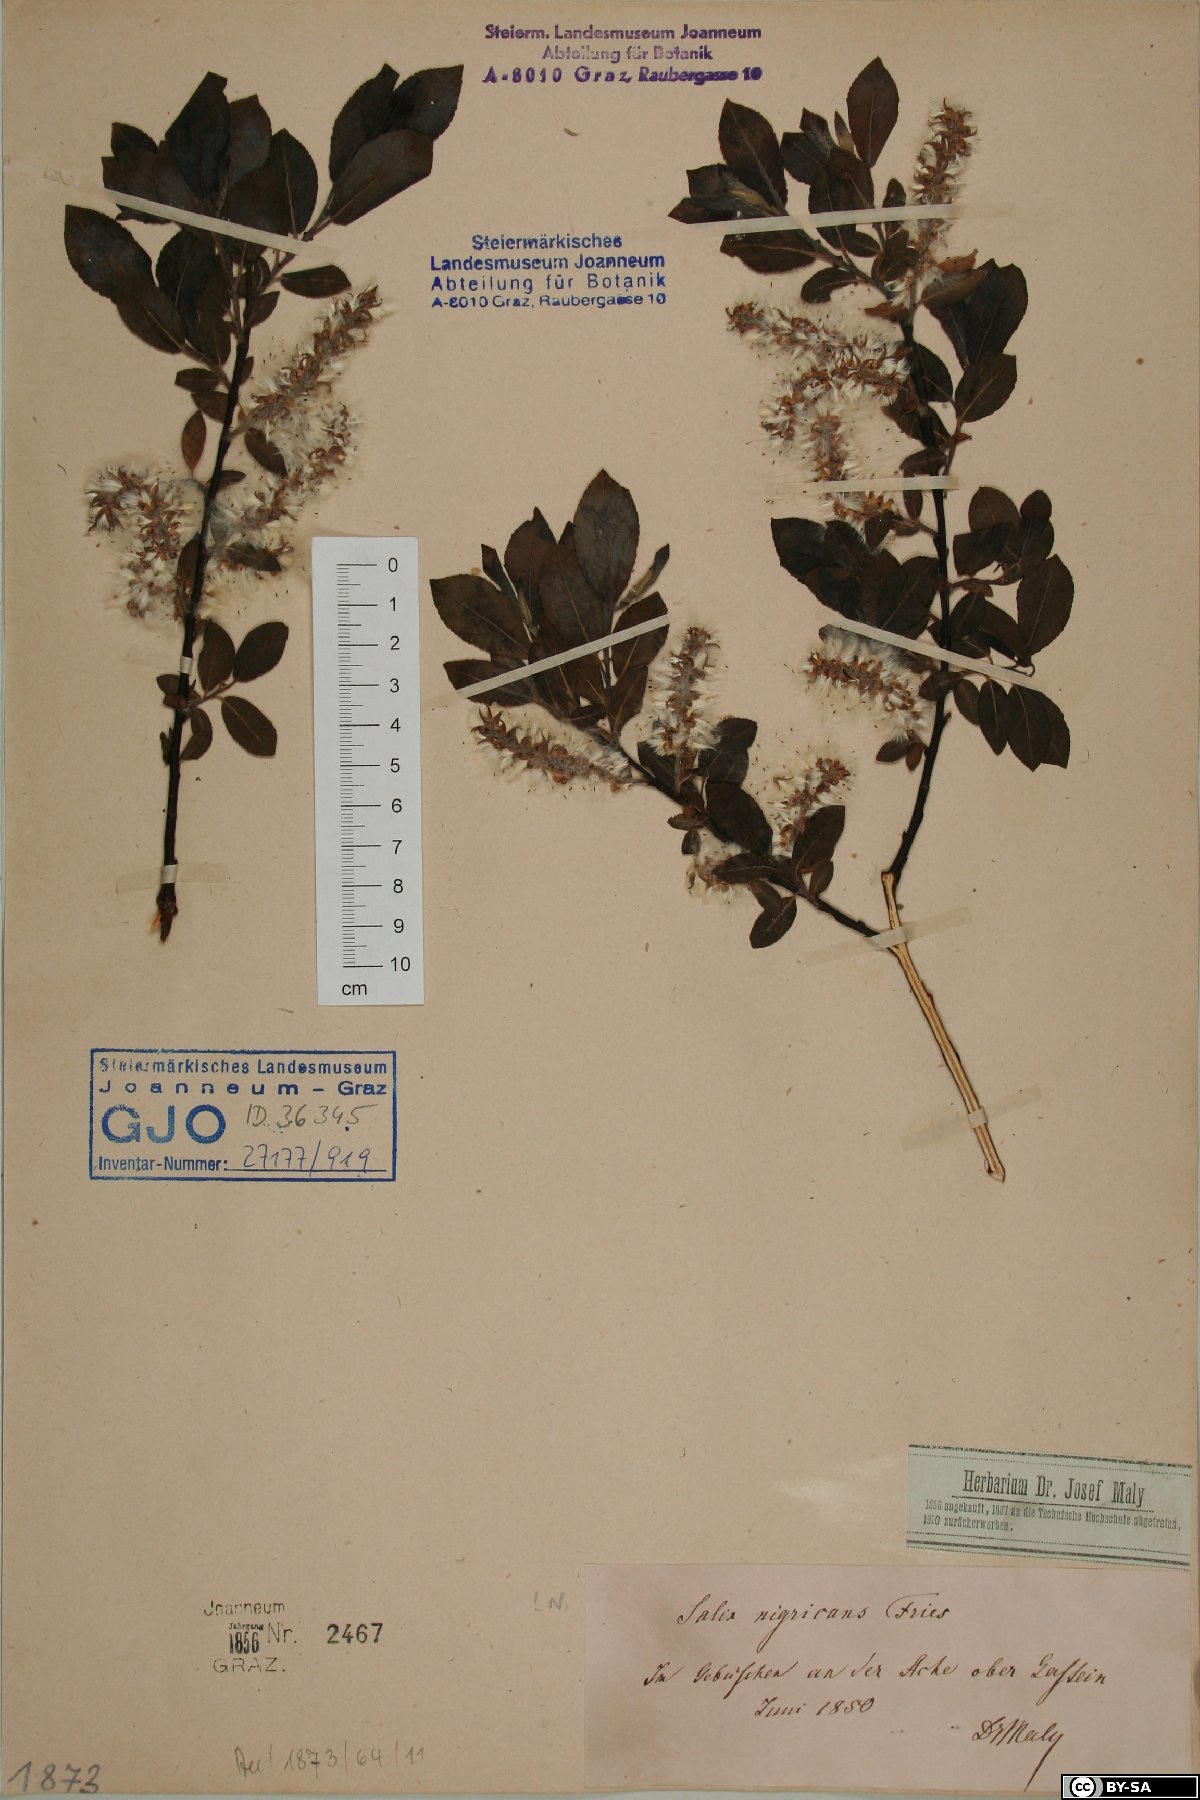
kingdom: Plantae
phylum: Tracheophyta
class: Magnoliopsida
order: Malpighiales
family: Salicaceae
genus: Salix
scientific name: Salix myrsinifolia
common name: Dark-leaved willow
